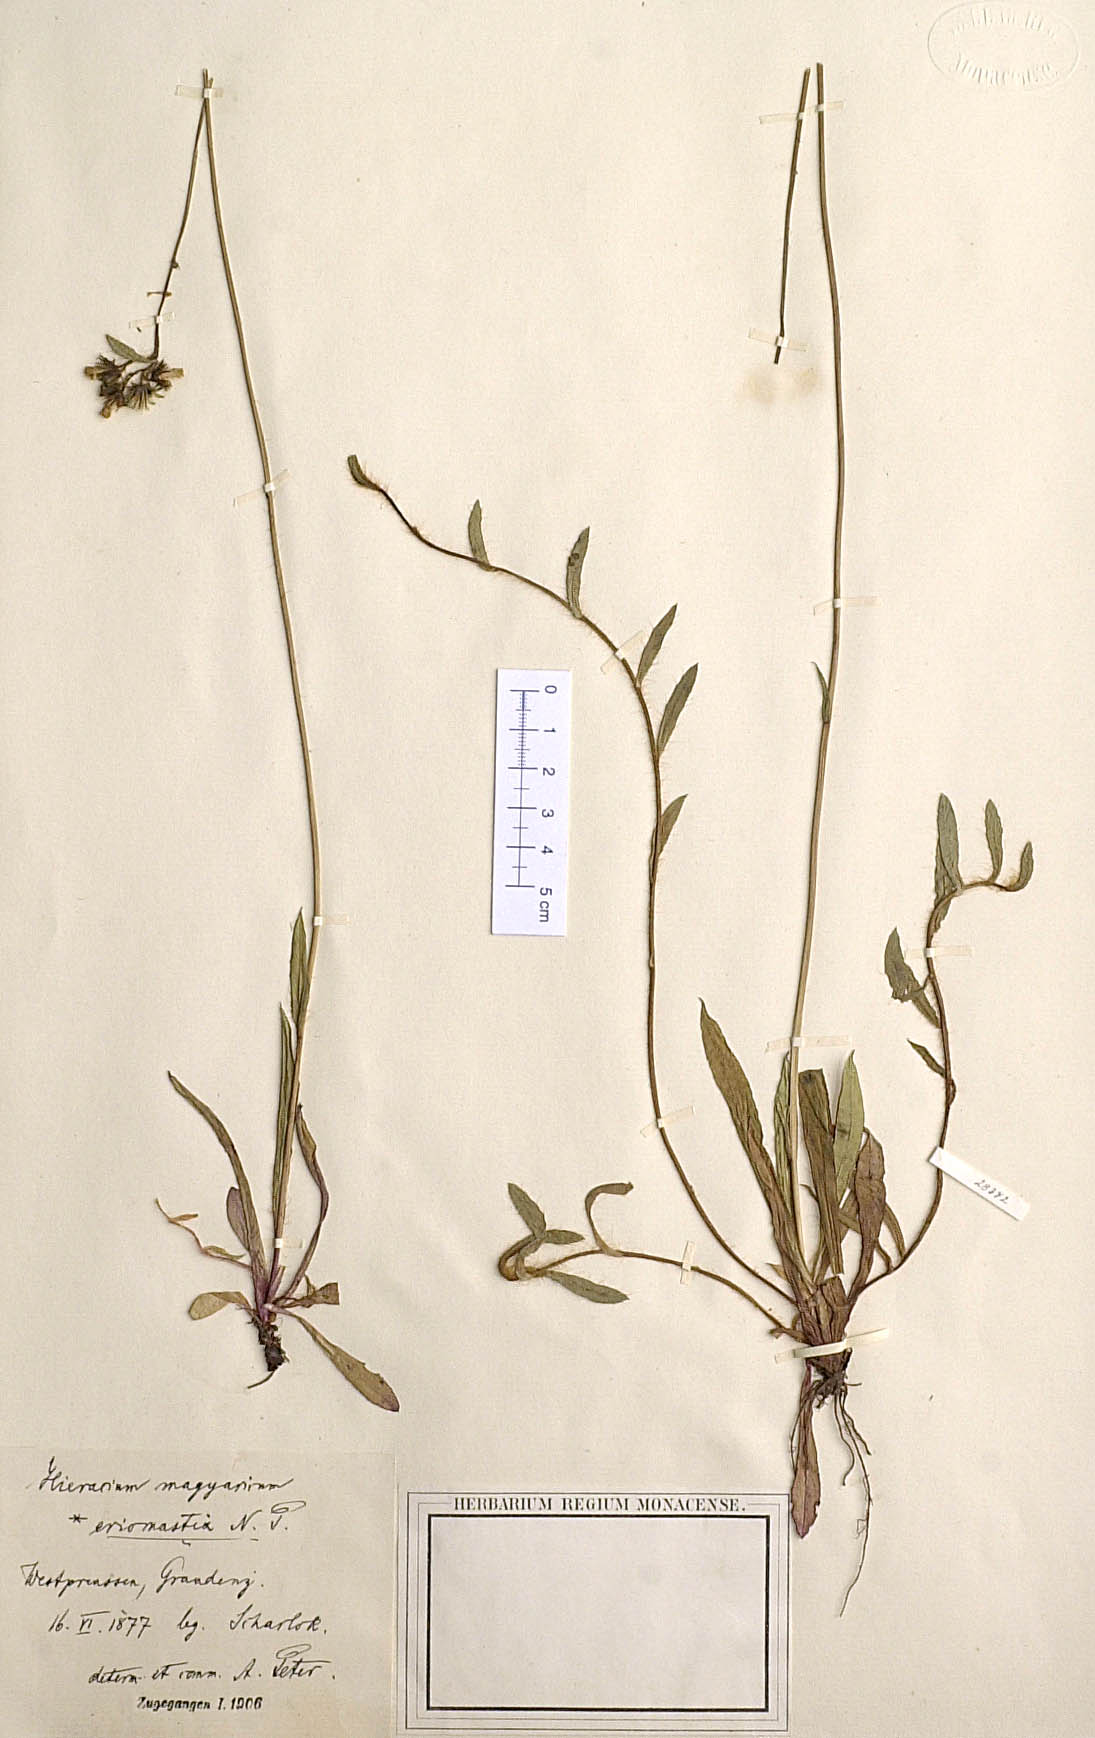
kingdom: Plantae
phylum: Tracheophyta
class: Magnoliopsida
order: Asterales
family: Asteraceae
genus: Pilosella
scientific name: Pilosella bauhini
